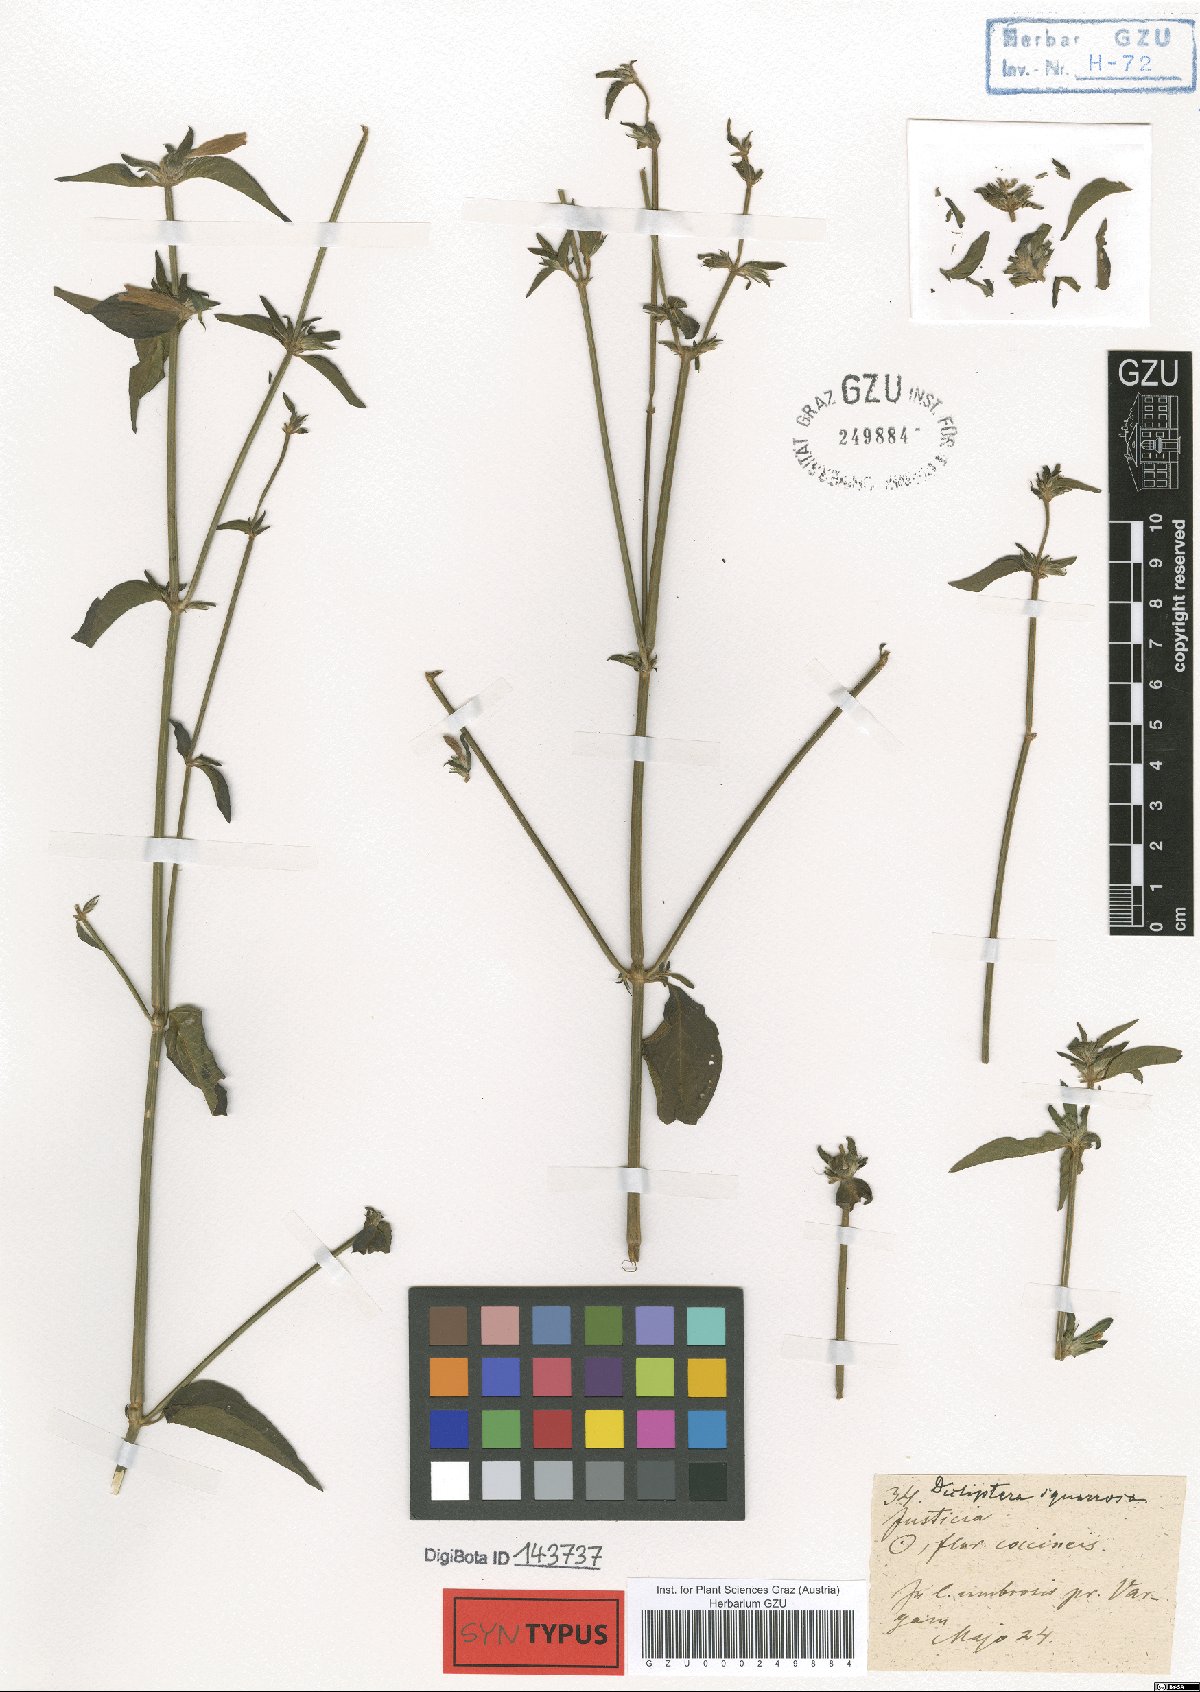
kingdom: Plantae
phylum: Tracheophyta
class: Magnoliopsida
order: Lamiales
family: Acanthaceae
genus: Dicliptera
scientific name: Dicliptera squarrosa
